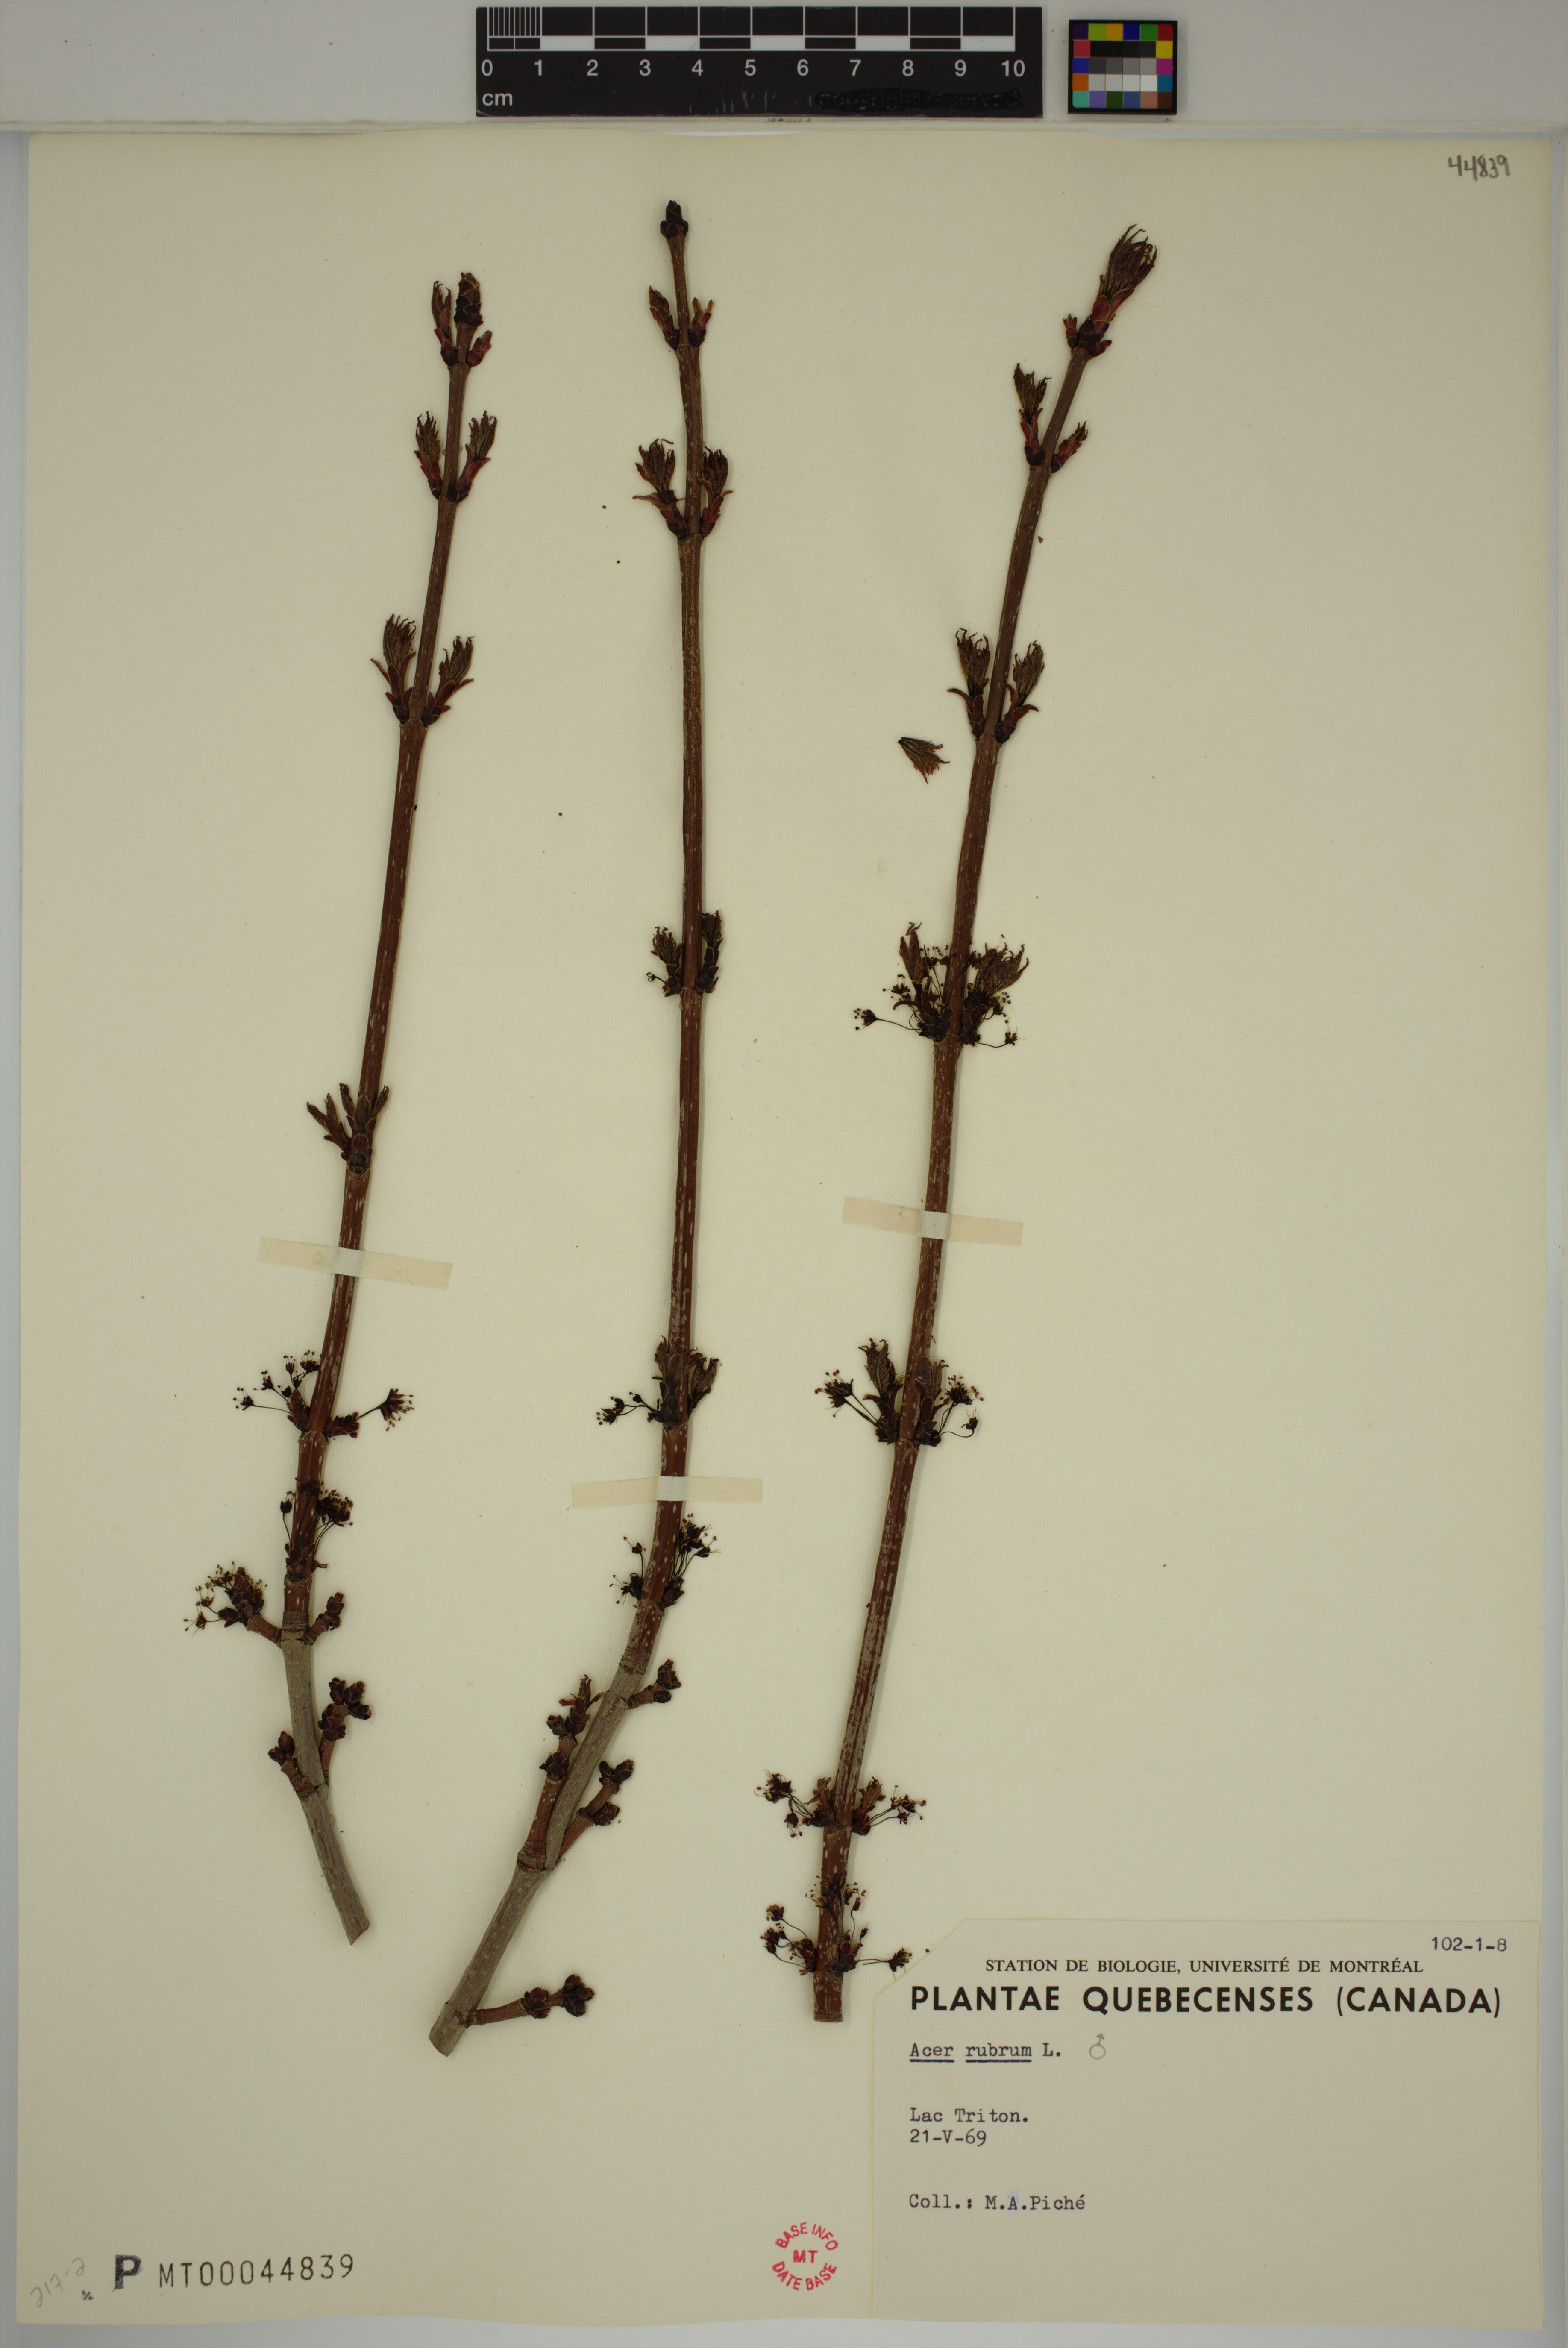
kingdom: Plantae
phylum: Tracheophyta
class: Magnoliopsida
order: Sapindales
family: Sapindaceae
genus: Acer
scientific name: Acer rubrum
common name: Red maple
